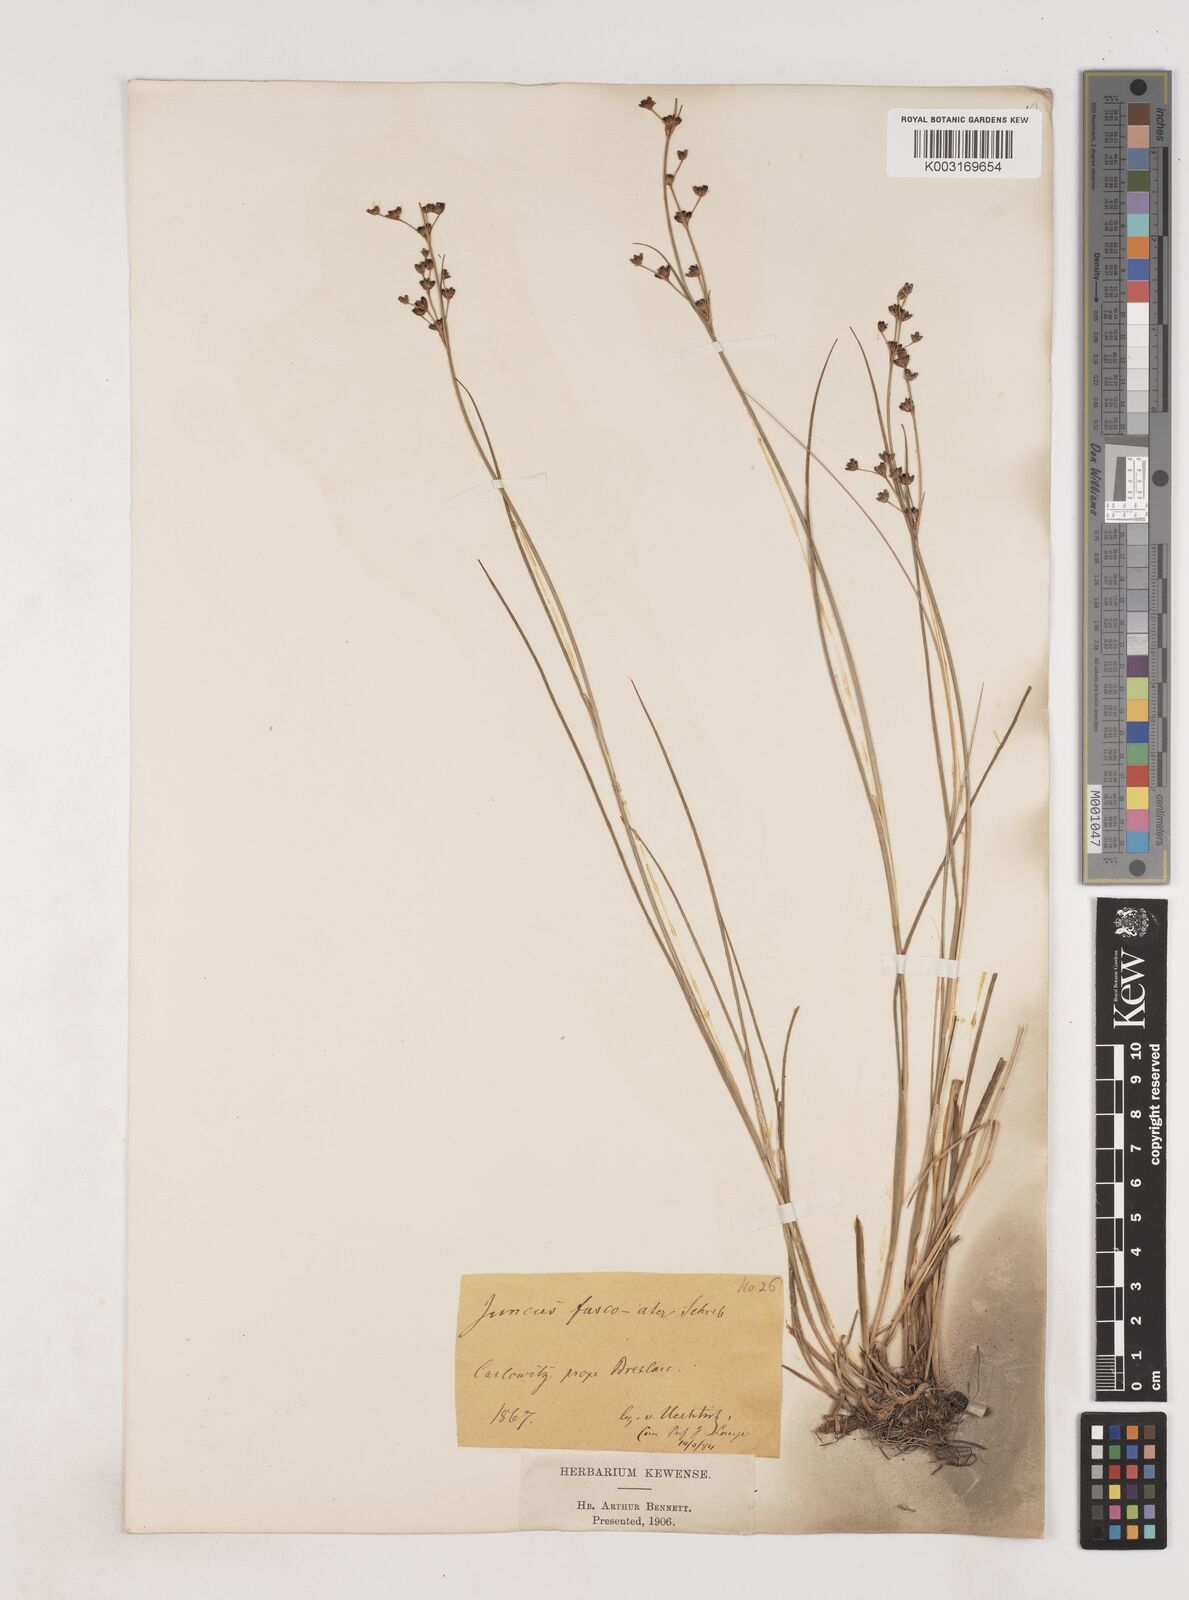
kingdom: Plantae
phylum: Tracheophyta
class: Liliopsida
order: Poales
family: Juncaceae
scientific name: Juncaceae
